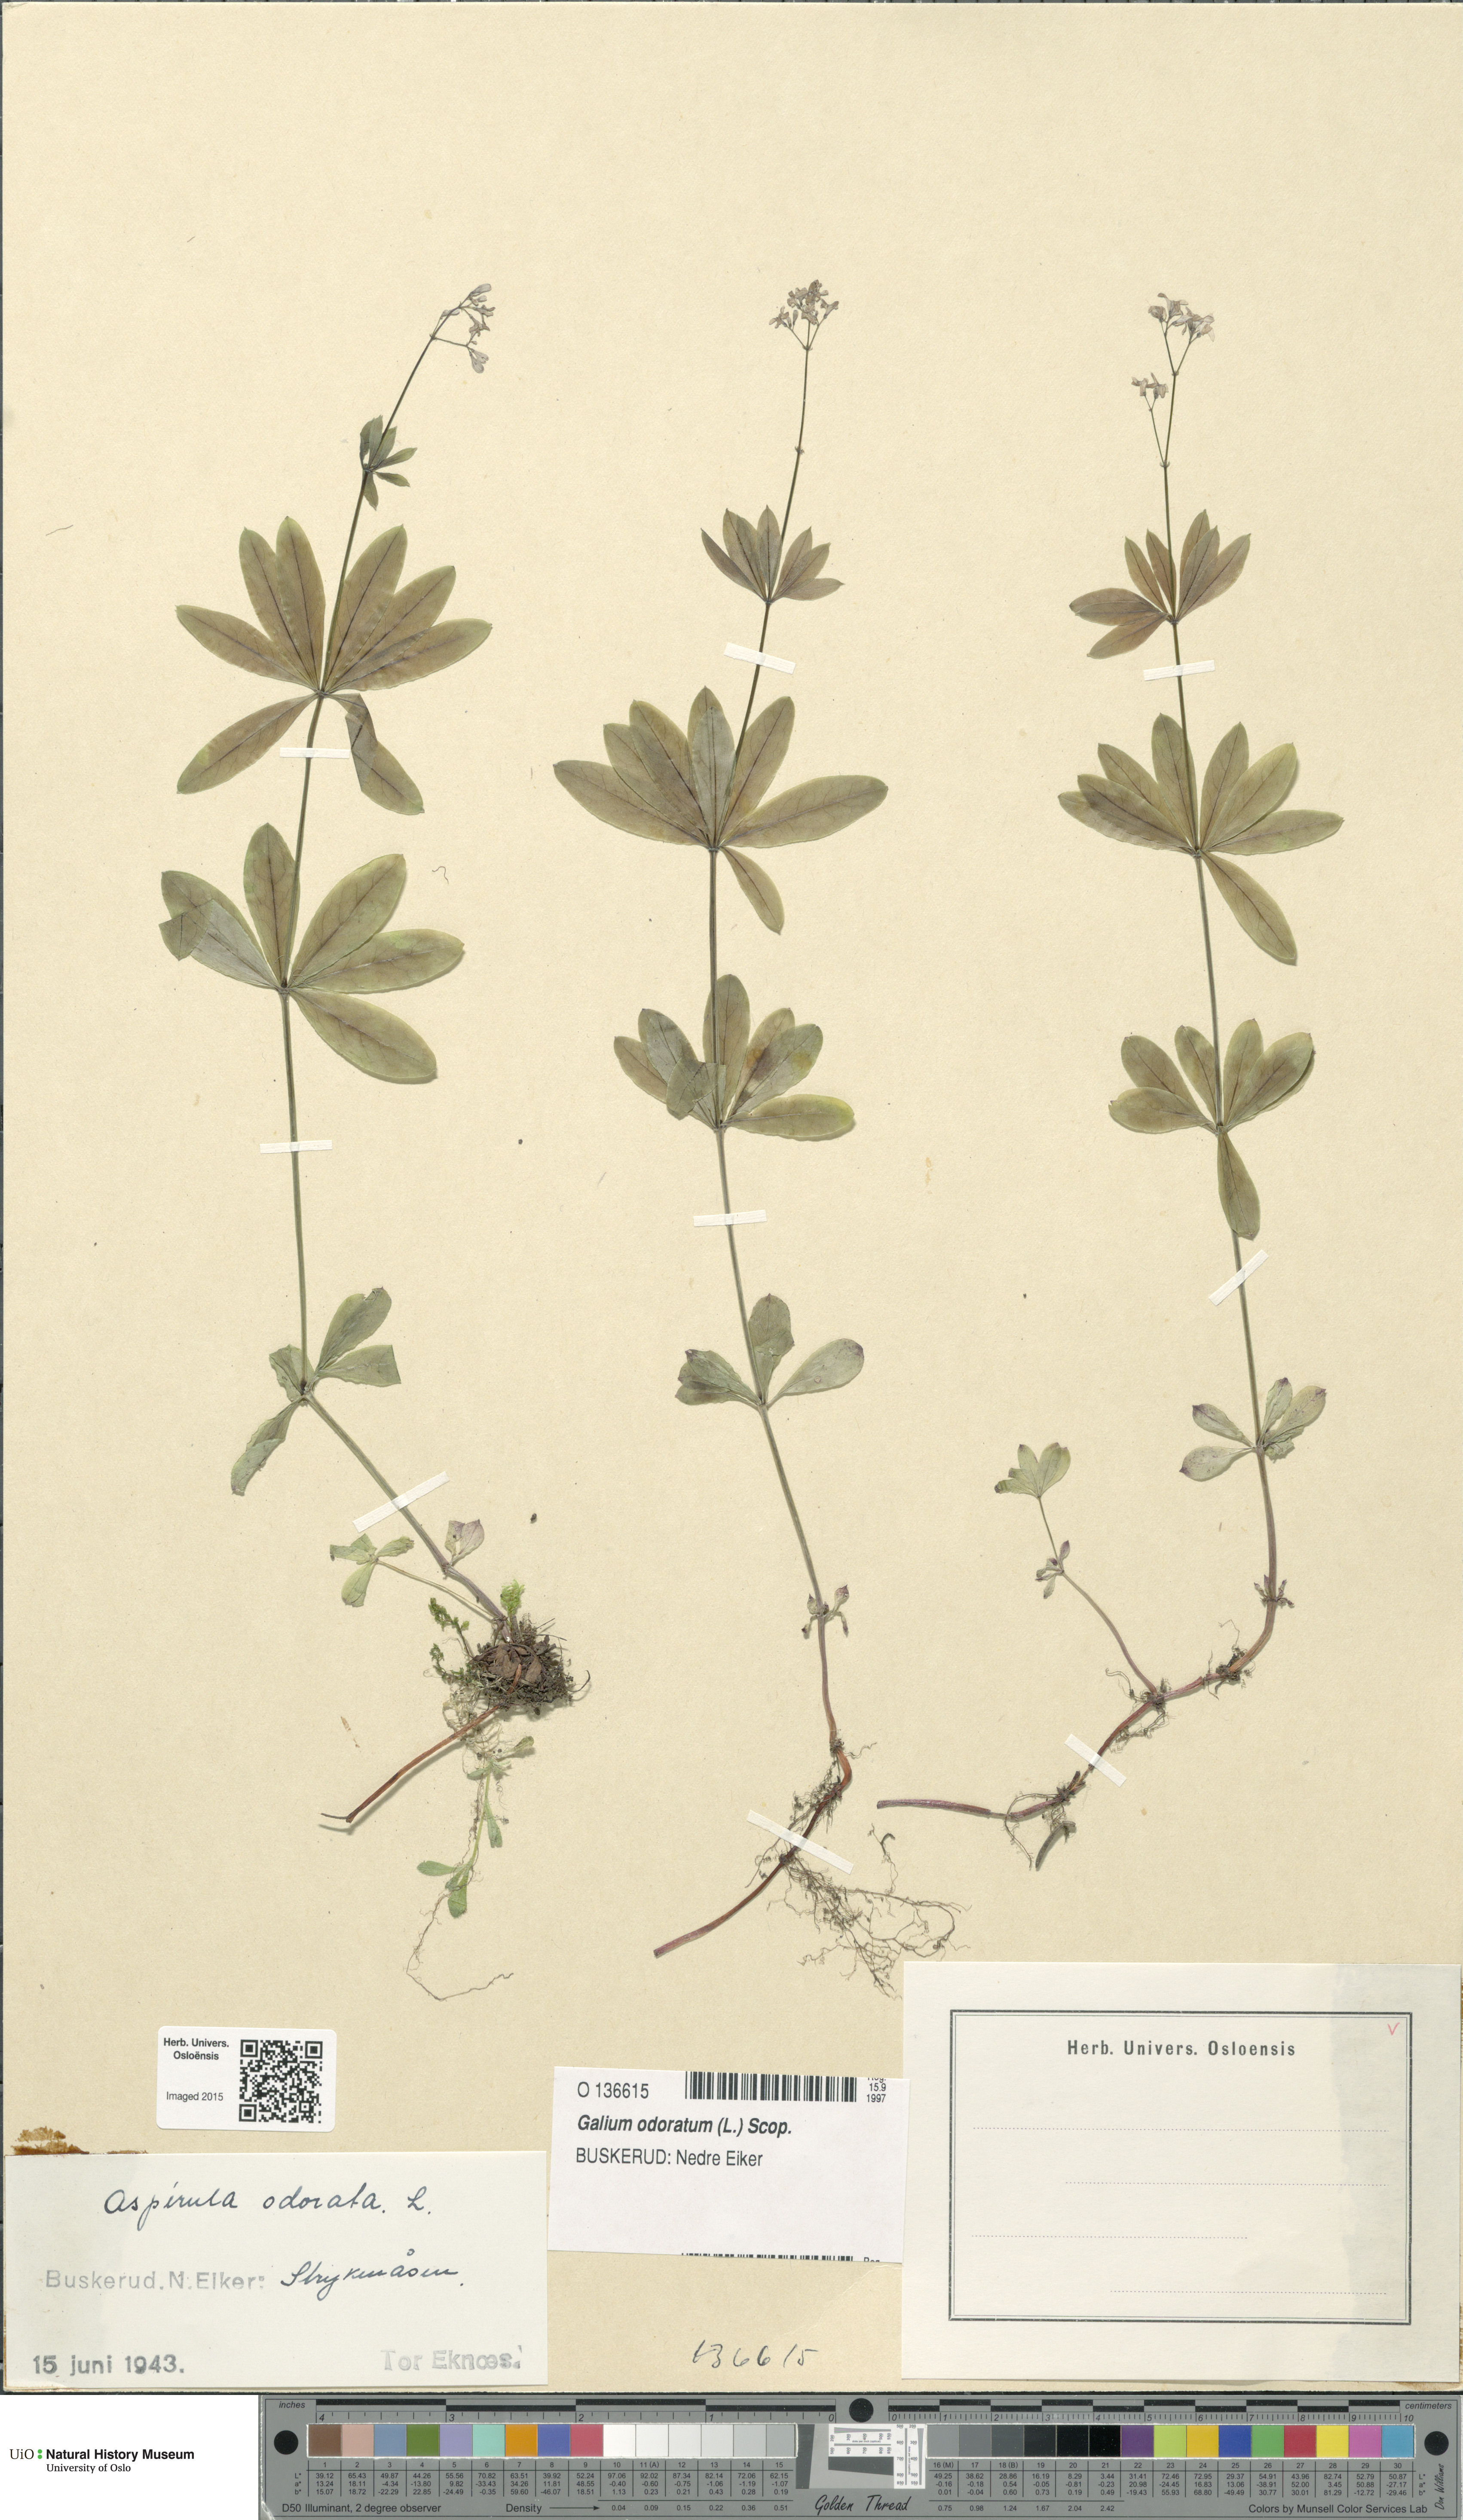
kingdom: Plantae
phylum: Tracheophyta
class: Magnoliopsida
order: Gentianales
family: Rubiaceae
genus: Galium
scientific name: Galium odoratum
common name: Sweet woodruff
